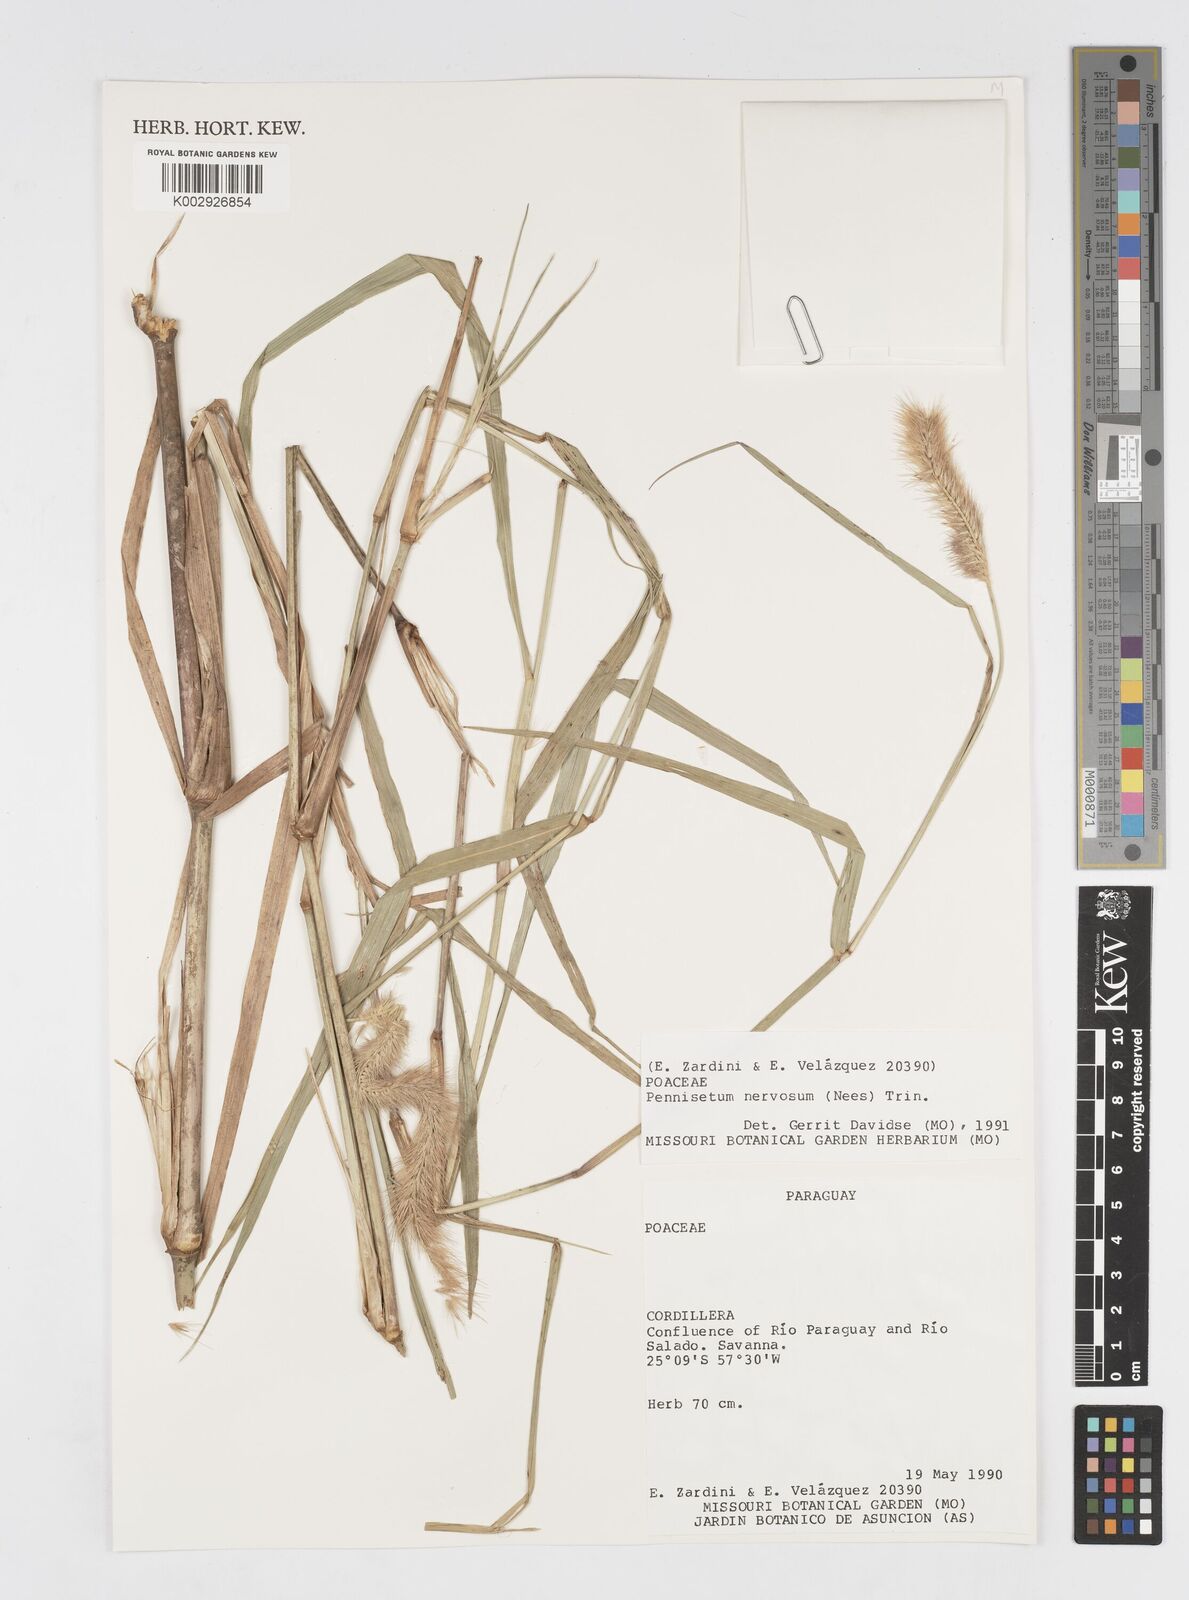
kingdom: Plantae
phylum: Tracheophyta
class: Liliopsida
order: Poales
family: Poaceae
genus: Cenchrus
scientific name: Cenchrus nervosus
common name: Bentspike fountaingrass
